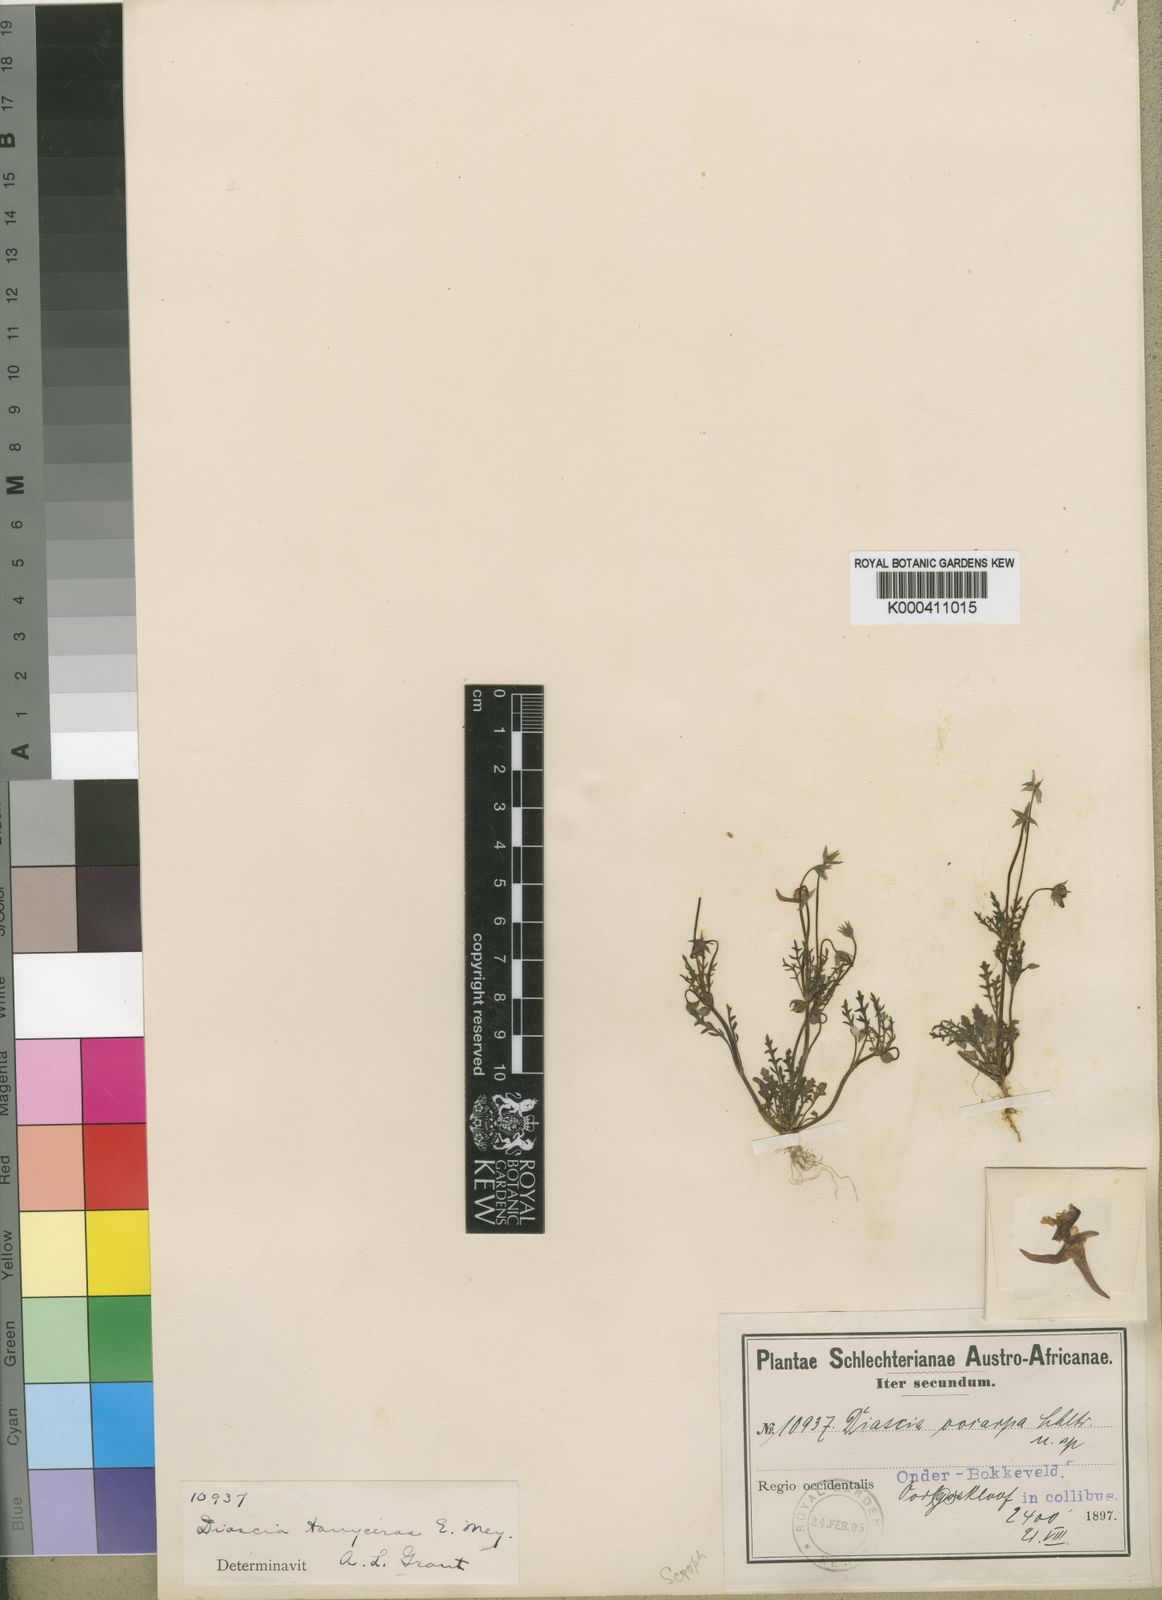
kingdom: Plantae
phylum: Tracheophyta
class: Magnoliopsida
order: Lamiales
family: Scrophulariaceae
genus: Diascia
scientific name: Diascia tanyceras
